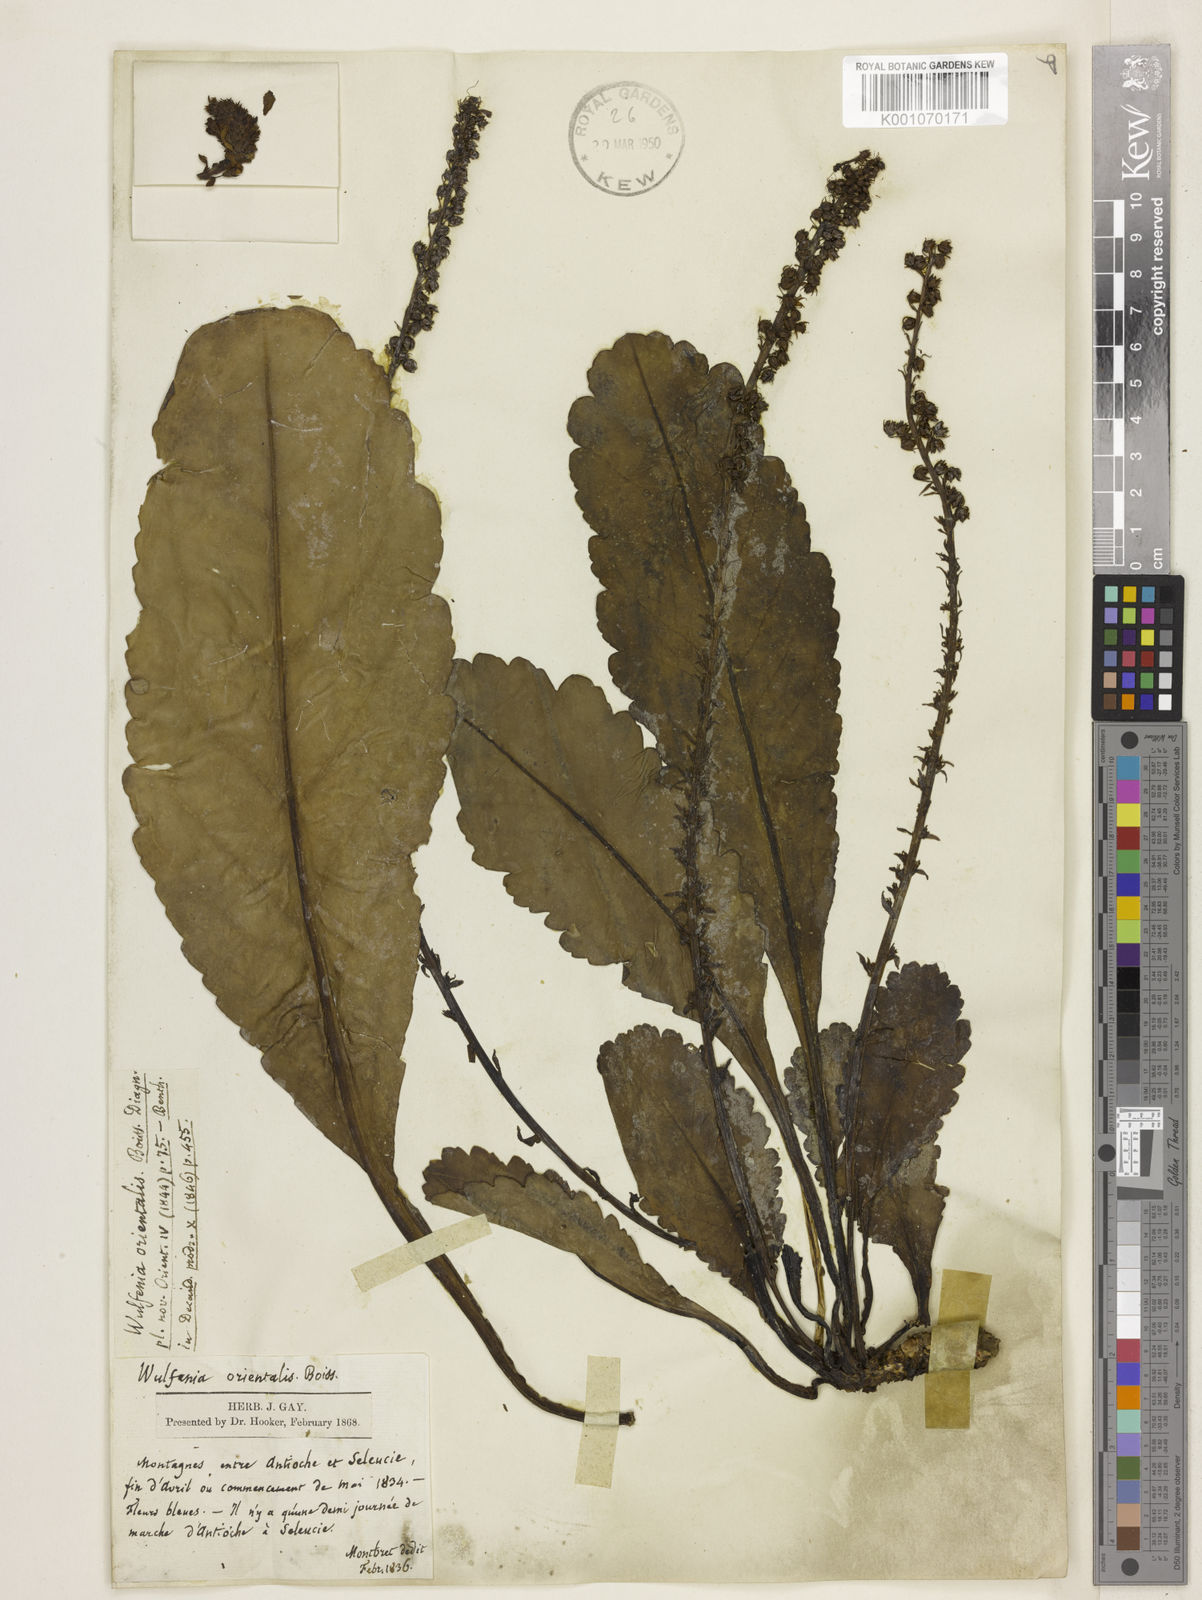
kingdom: Plantae
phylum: Tracheophyta
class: Magnoliopsida
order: Lamiales
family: Plantaginaceae
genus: Wulfenia
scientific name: Wulfenia orientalis
